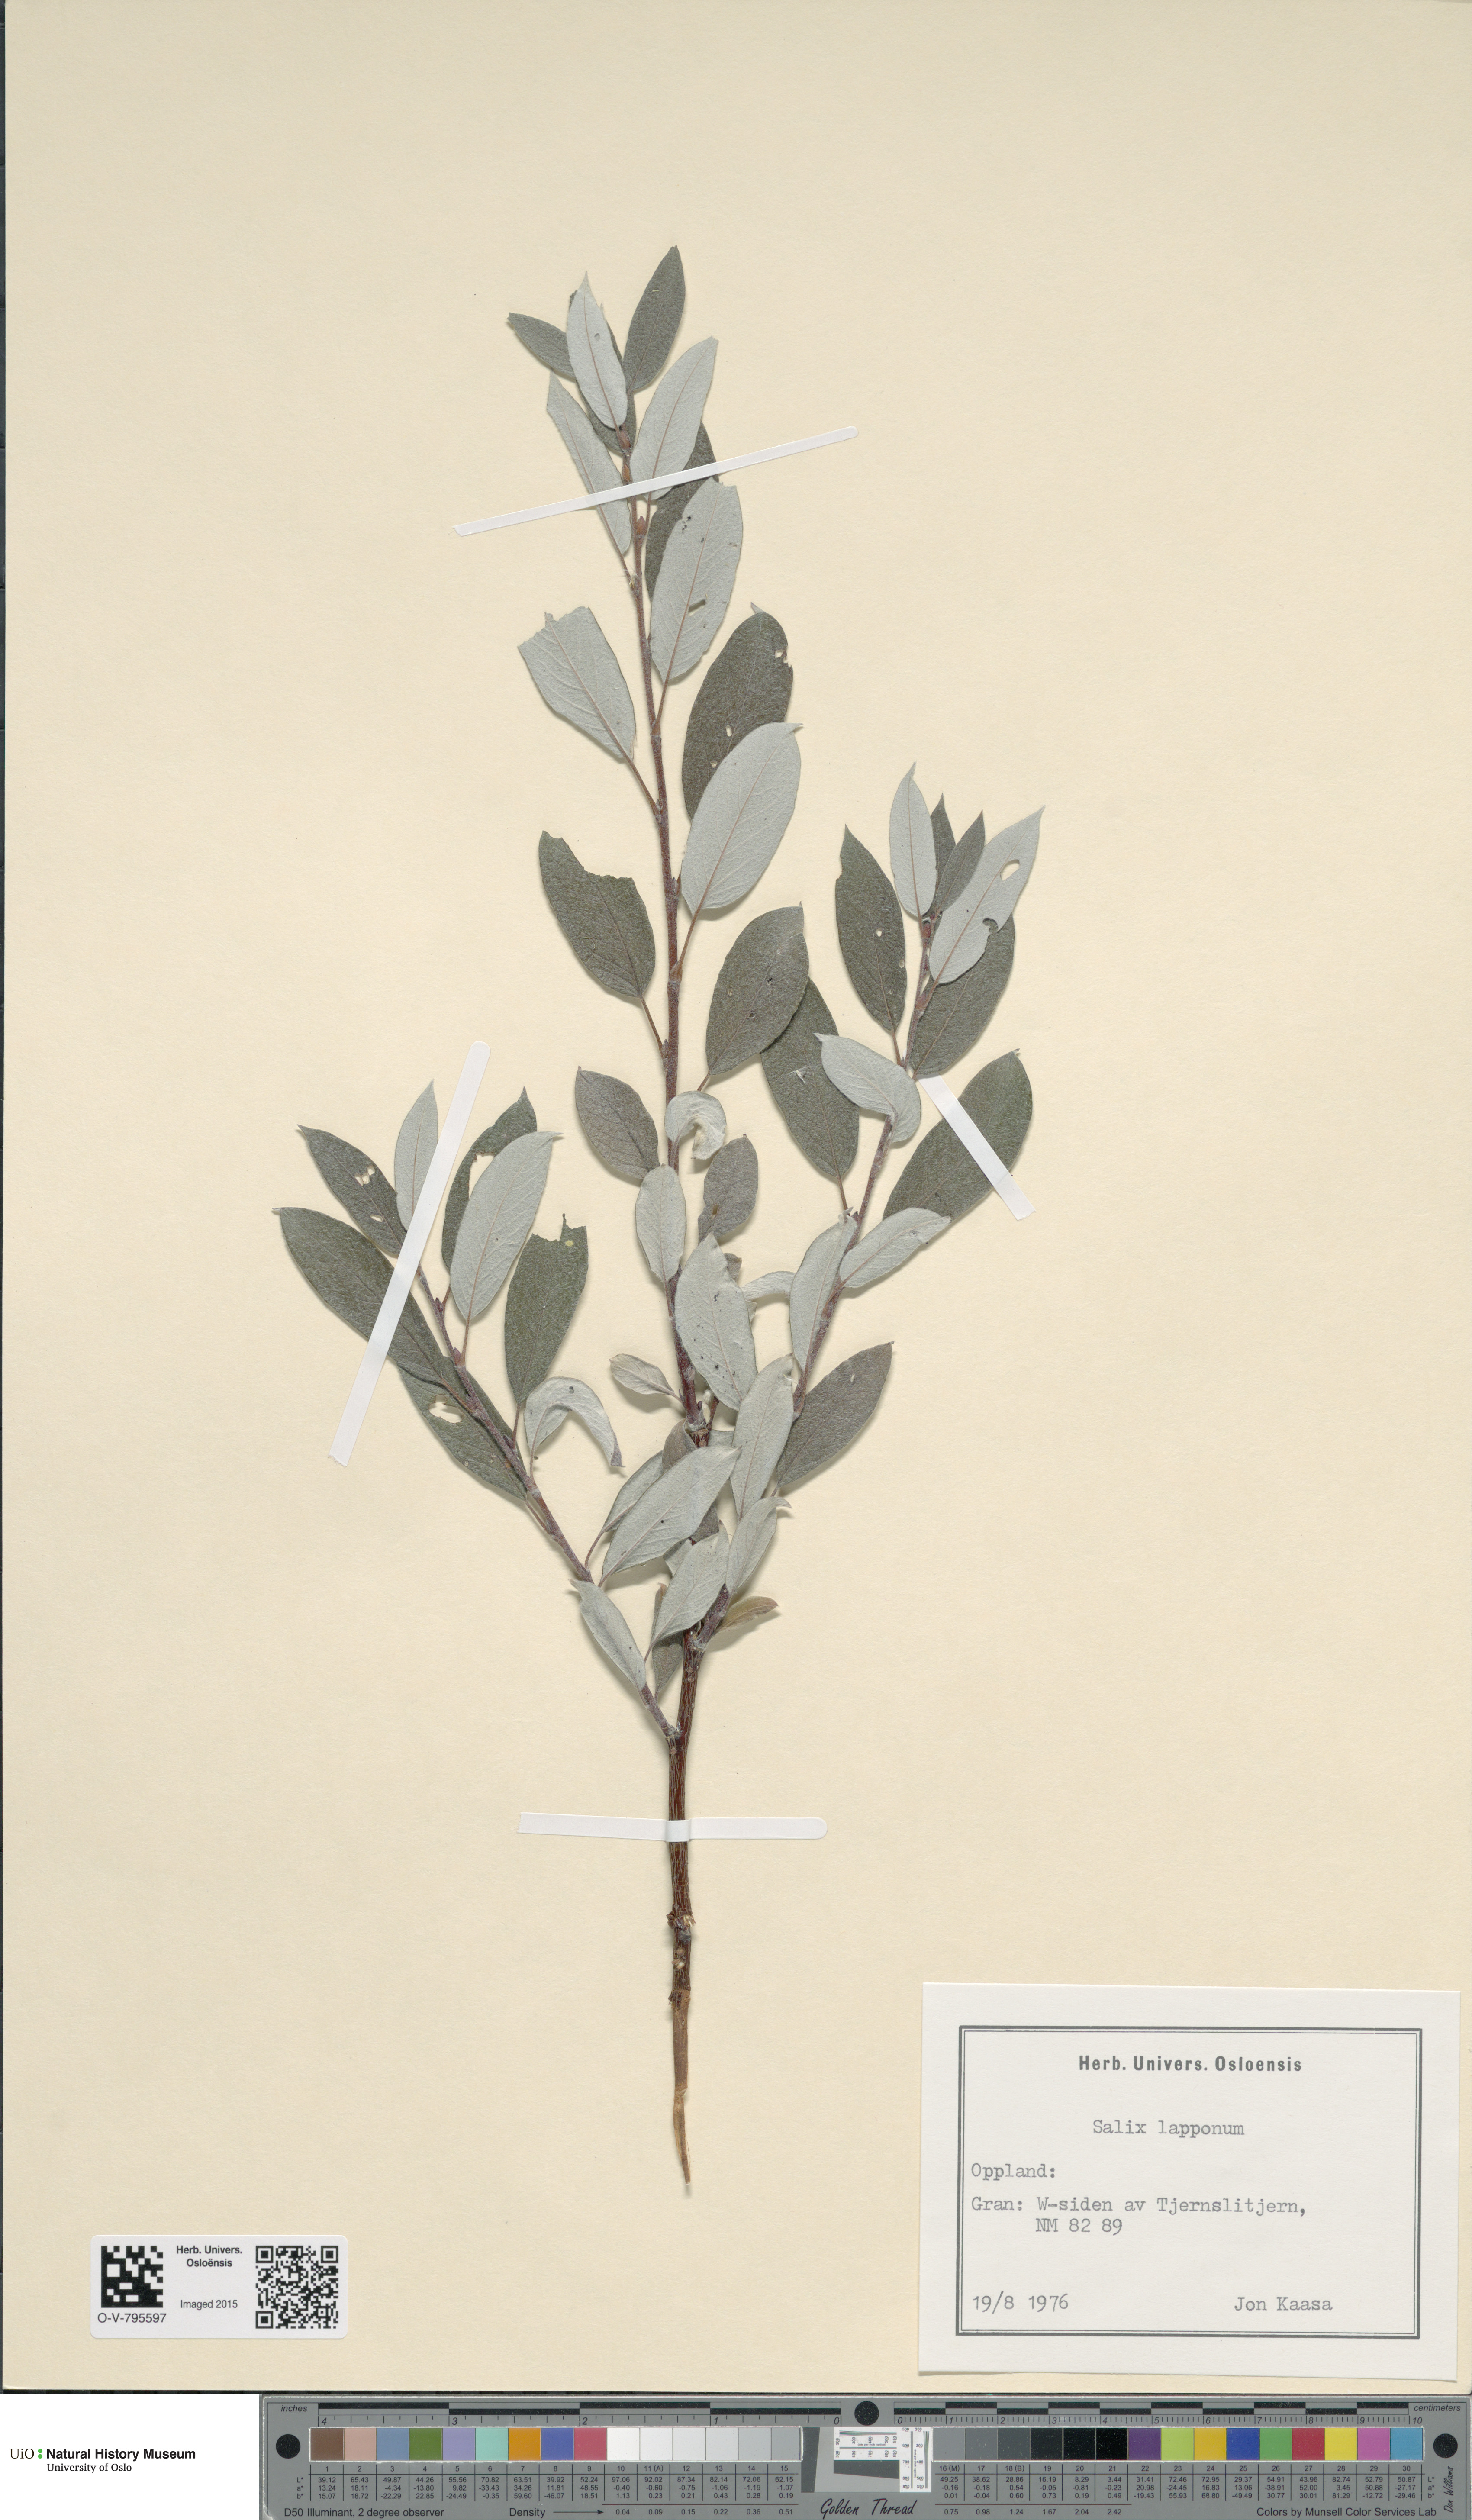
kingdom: Plantae
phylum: Tracheophyta
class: Magnoliopsida
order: Malpighiales
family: Salicaceae
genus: Salix
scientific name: Salix lapponum
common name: Downy willow
